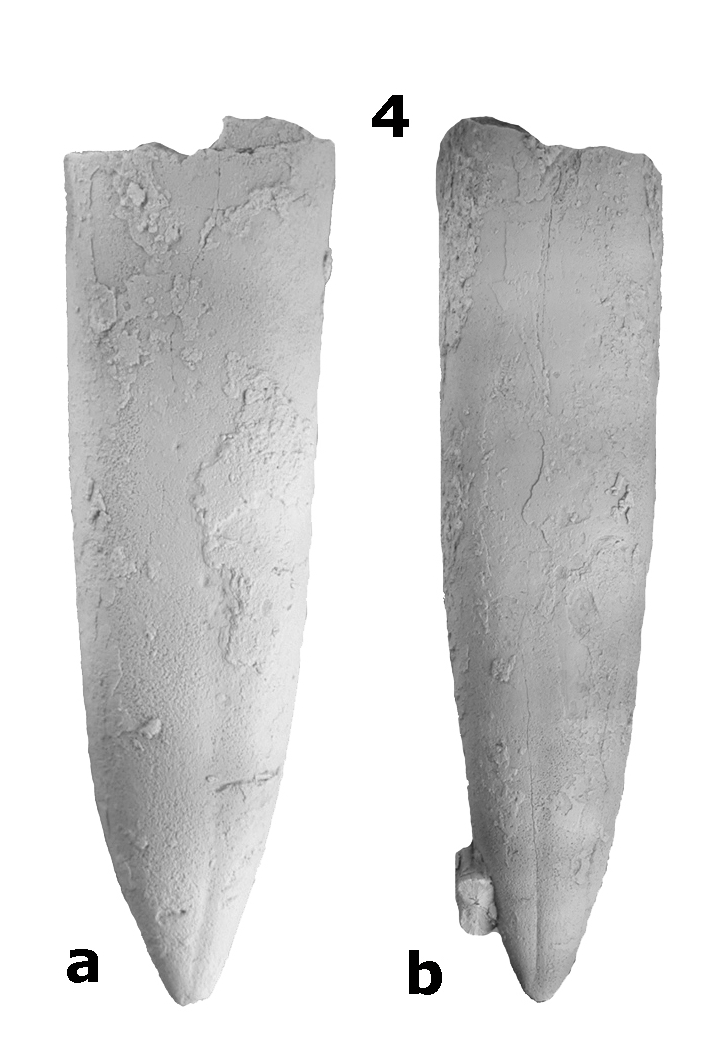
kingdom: Animalia
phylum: Mollusca
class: Cephalopoda
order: Belemnitida
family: Megateuthididae
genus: Acrocoelites
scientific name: Acrocoelites levidensis
